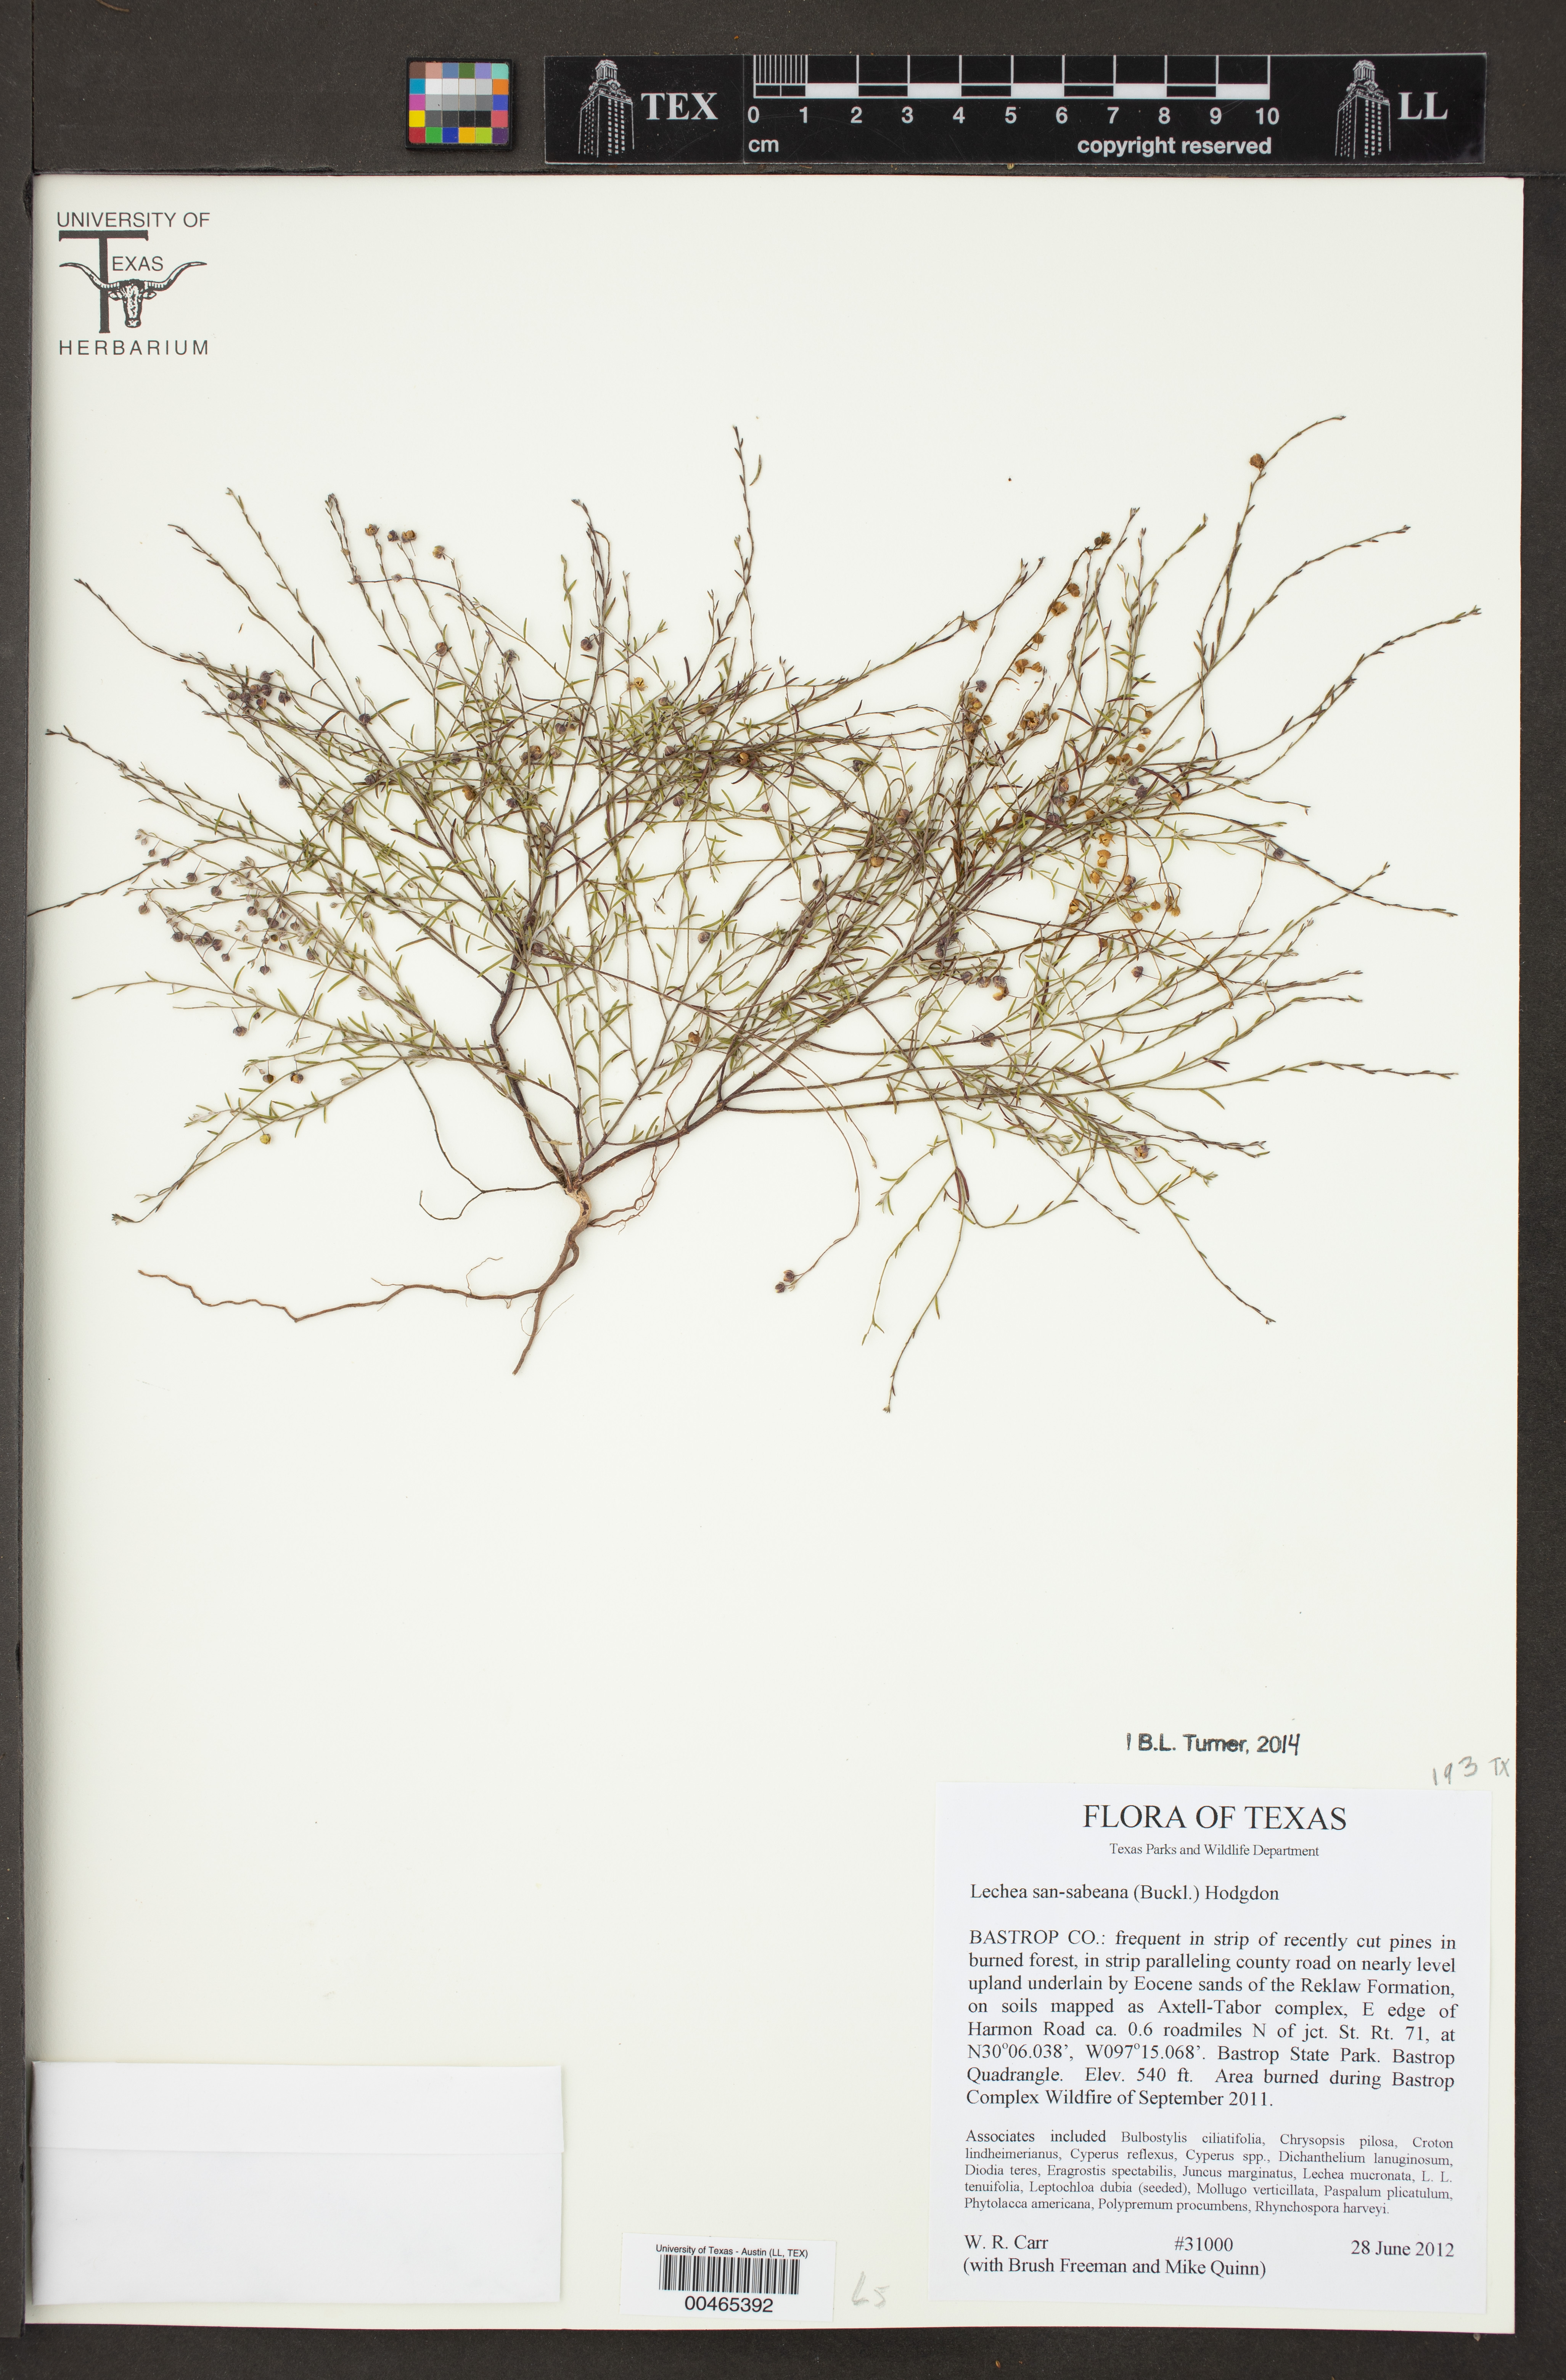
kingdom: Plantae
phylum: Tracheophyta
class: Magnoliopsida
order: Malvales
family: Cistaceae
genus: Lechea
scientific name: Lechea san-sabeana
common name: San saba pinweed
